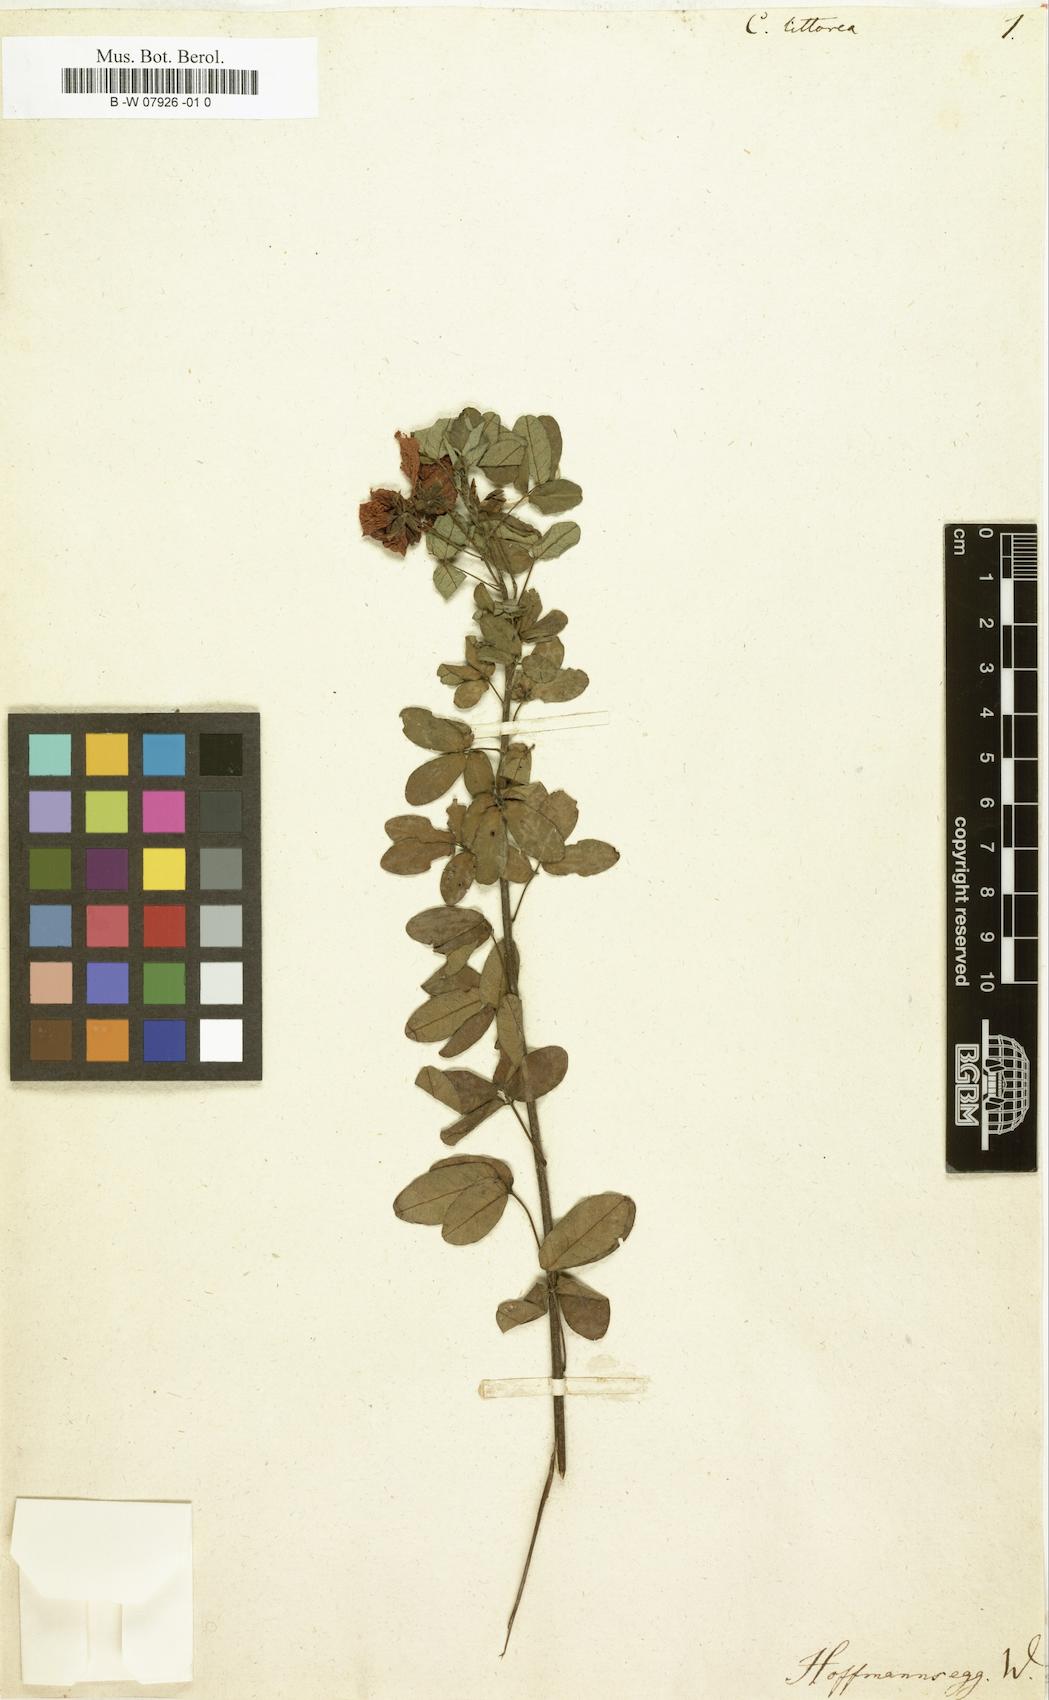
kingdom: Plantae
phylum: Tracheophyta
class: Magnoliopsida
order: Fabales
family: Fabaceae
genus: Cassia
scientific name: Cassia
